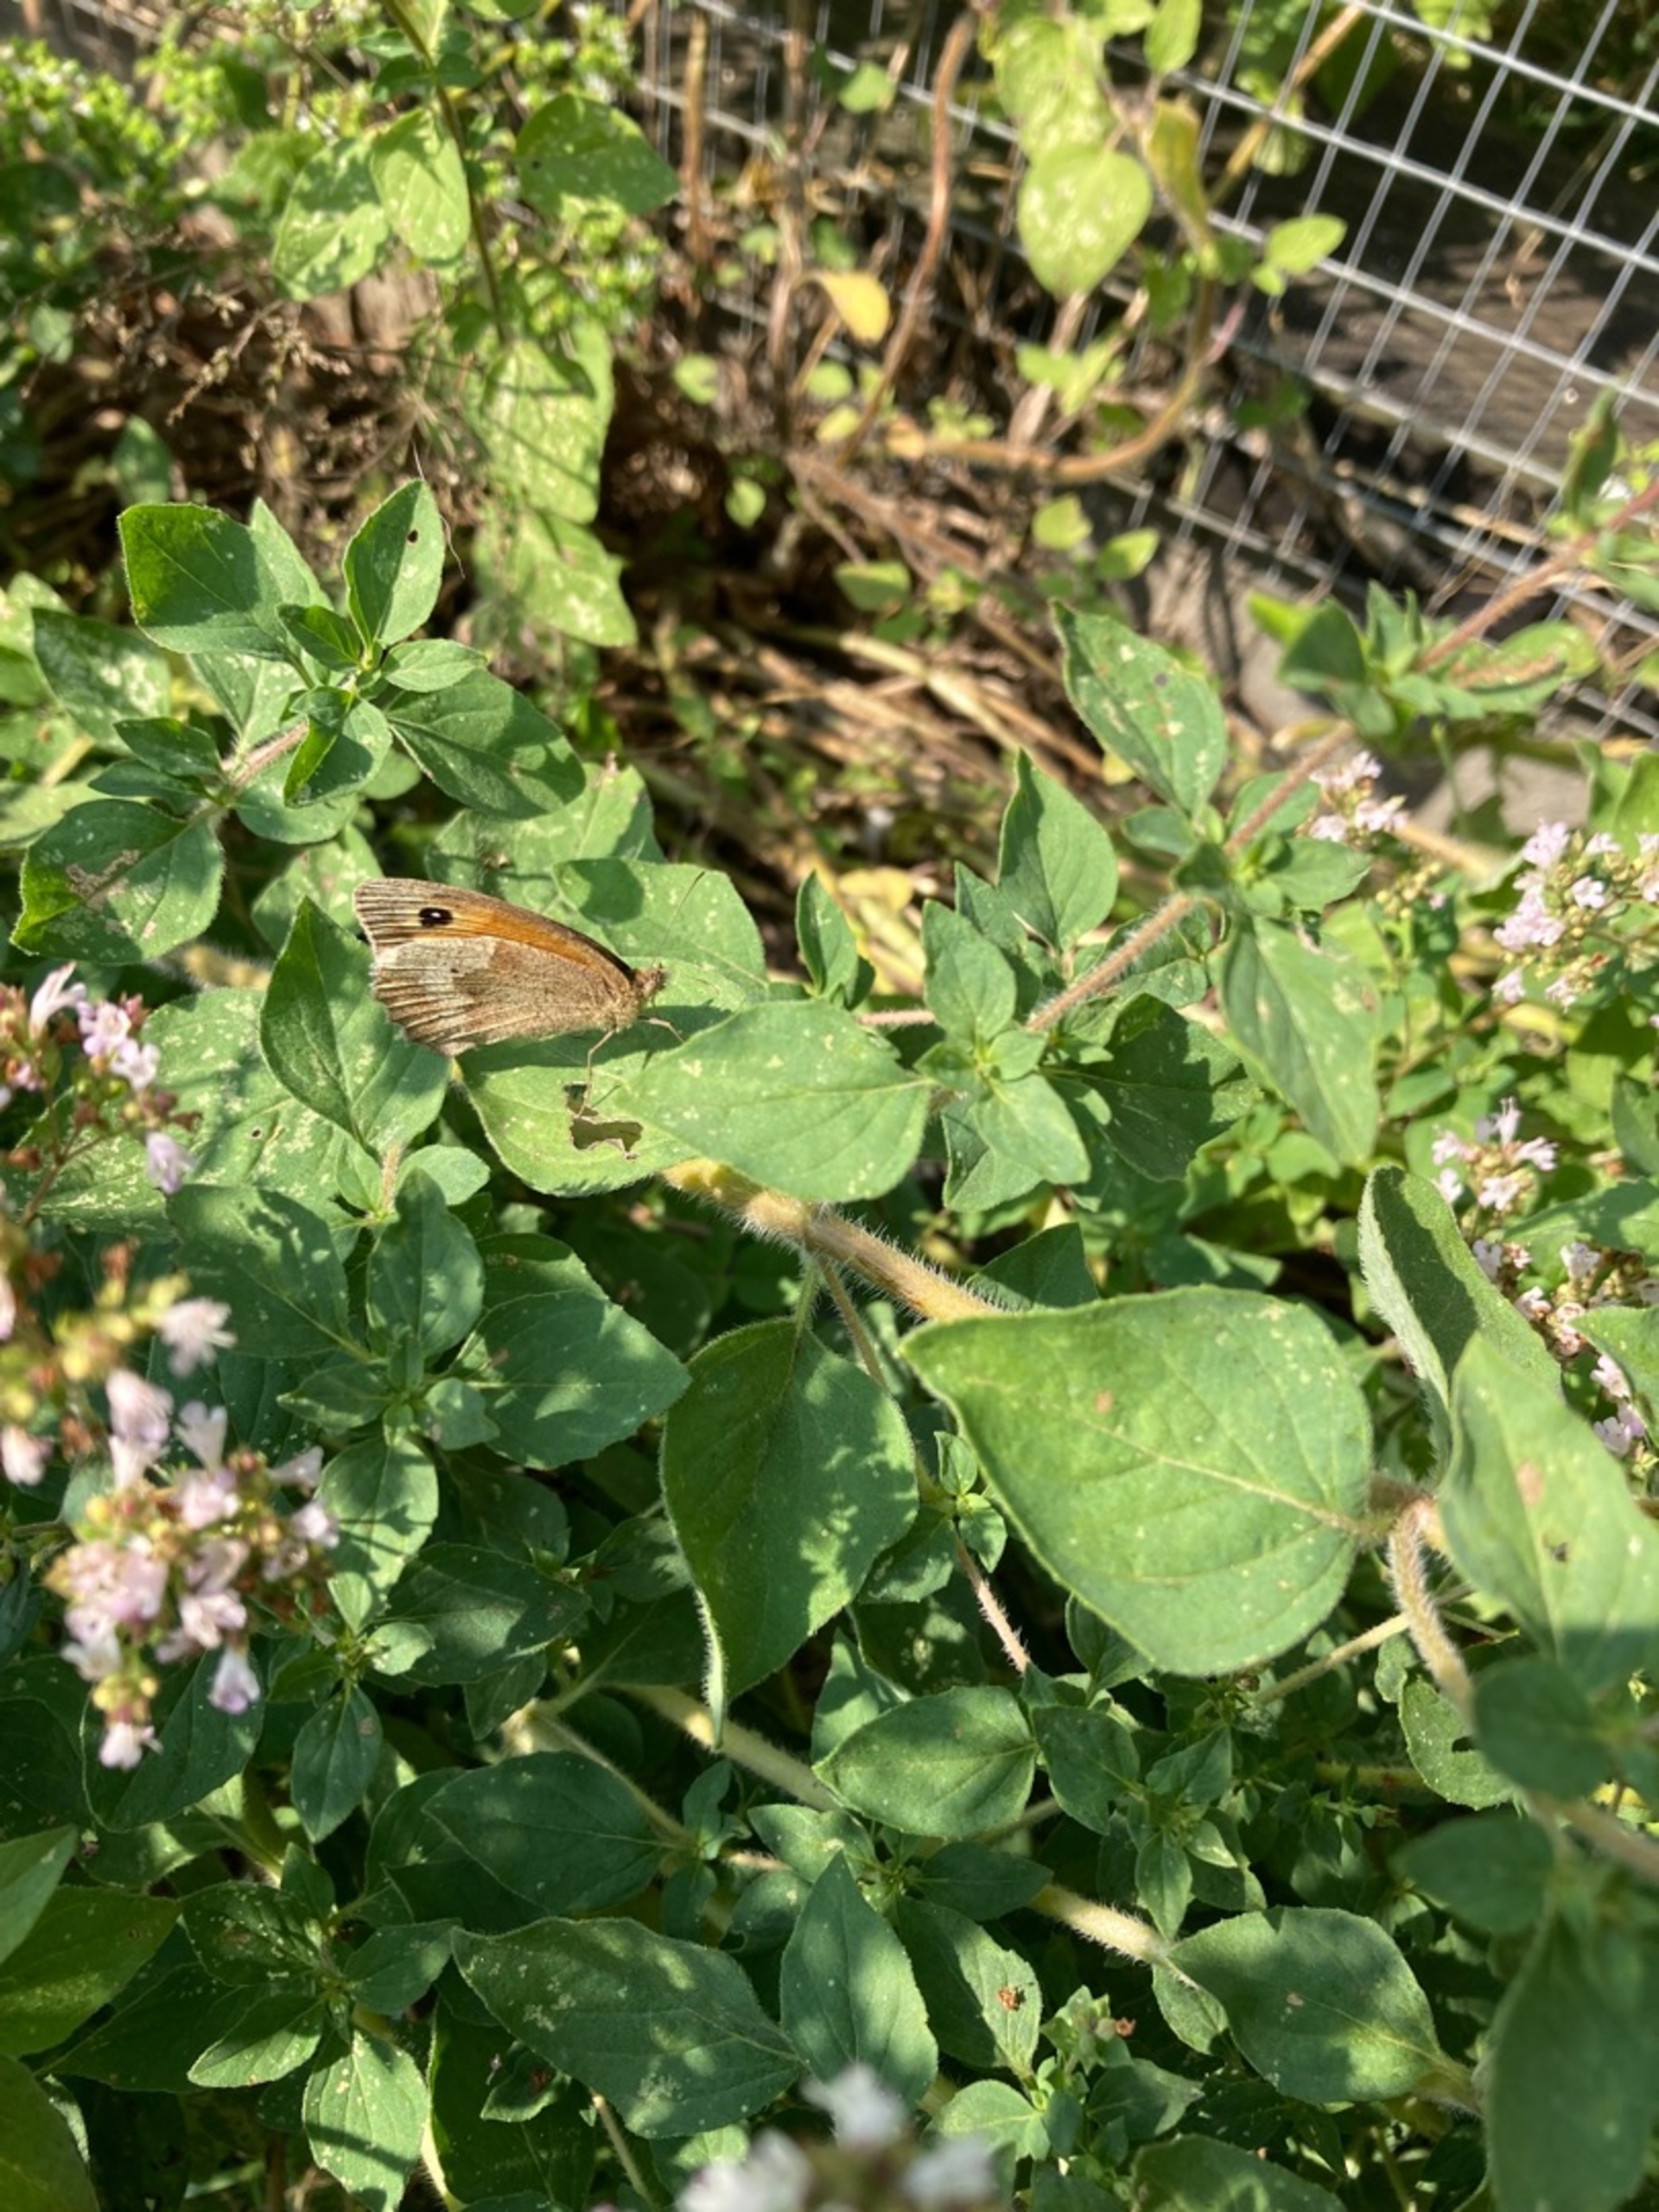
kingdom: Animalia
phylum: Arthropoda
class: Insecta
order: Lepidoptera
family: Nymphalidae
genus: Maniola
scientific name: Maniola jurtina
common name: Græsrandøje
